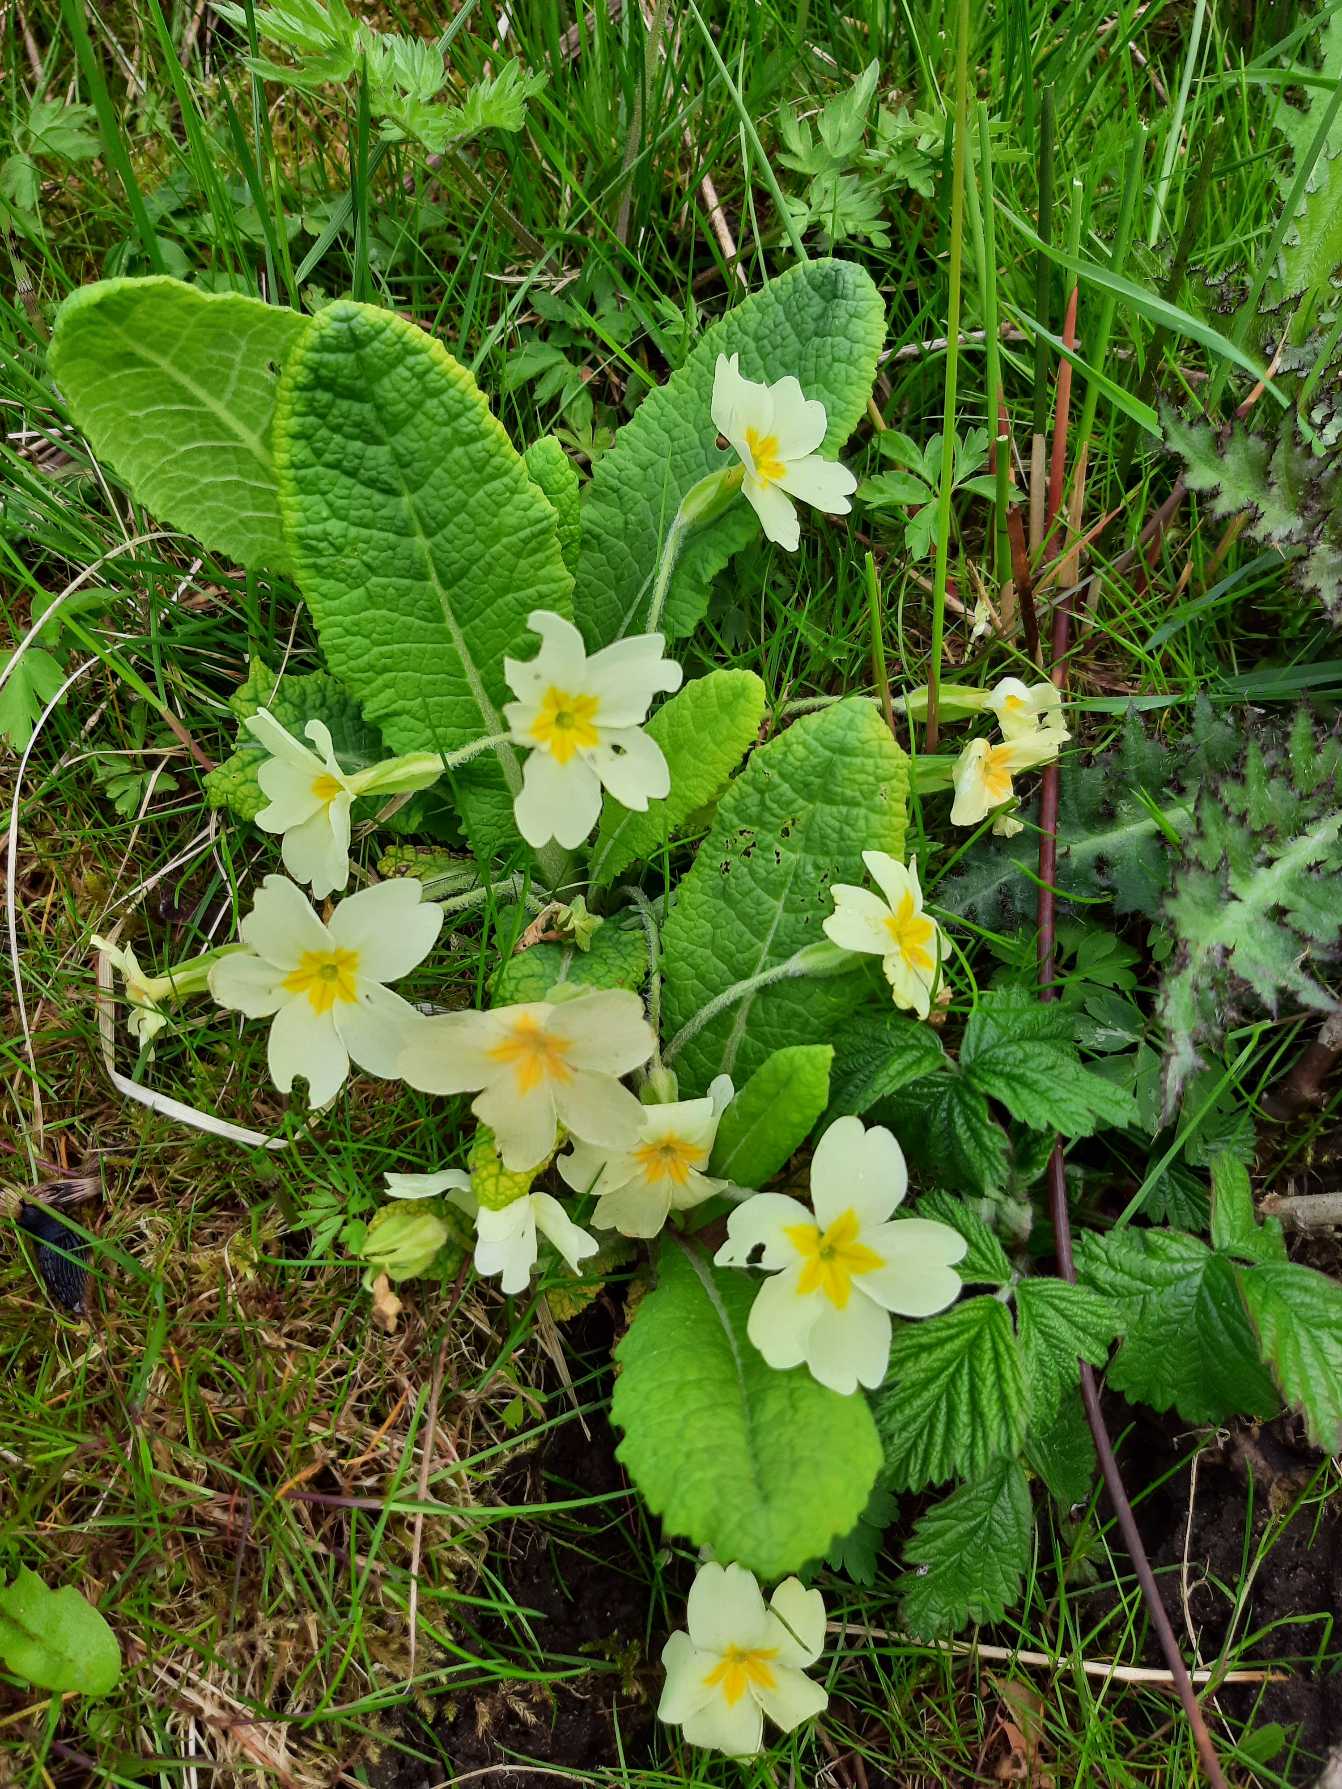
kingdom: Plantae
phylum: Tracheophyta
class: Magnoliopsida
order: Ericales
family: Primulaceae
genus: Primula
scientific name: Primula vulgaris
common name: Storblomstret kodriver
